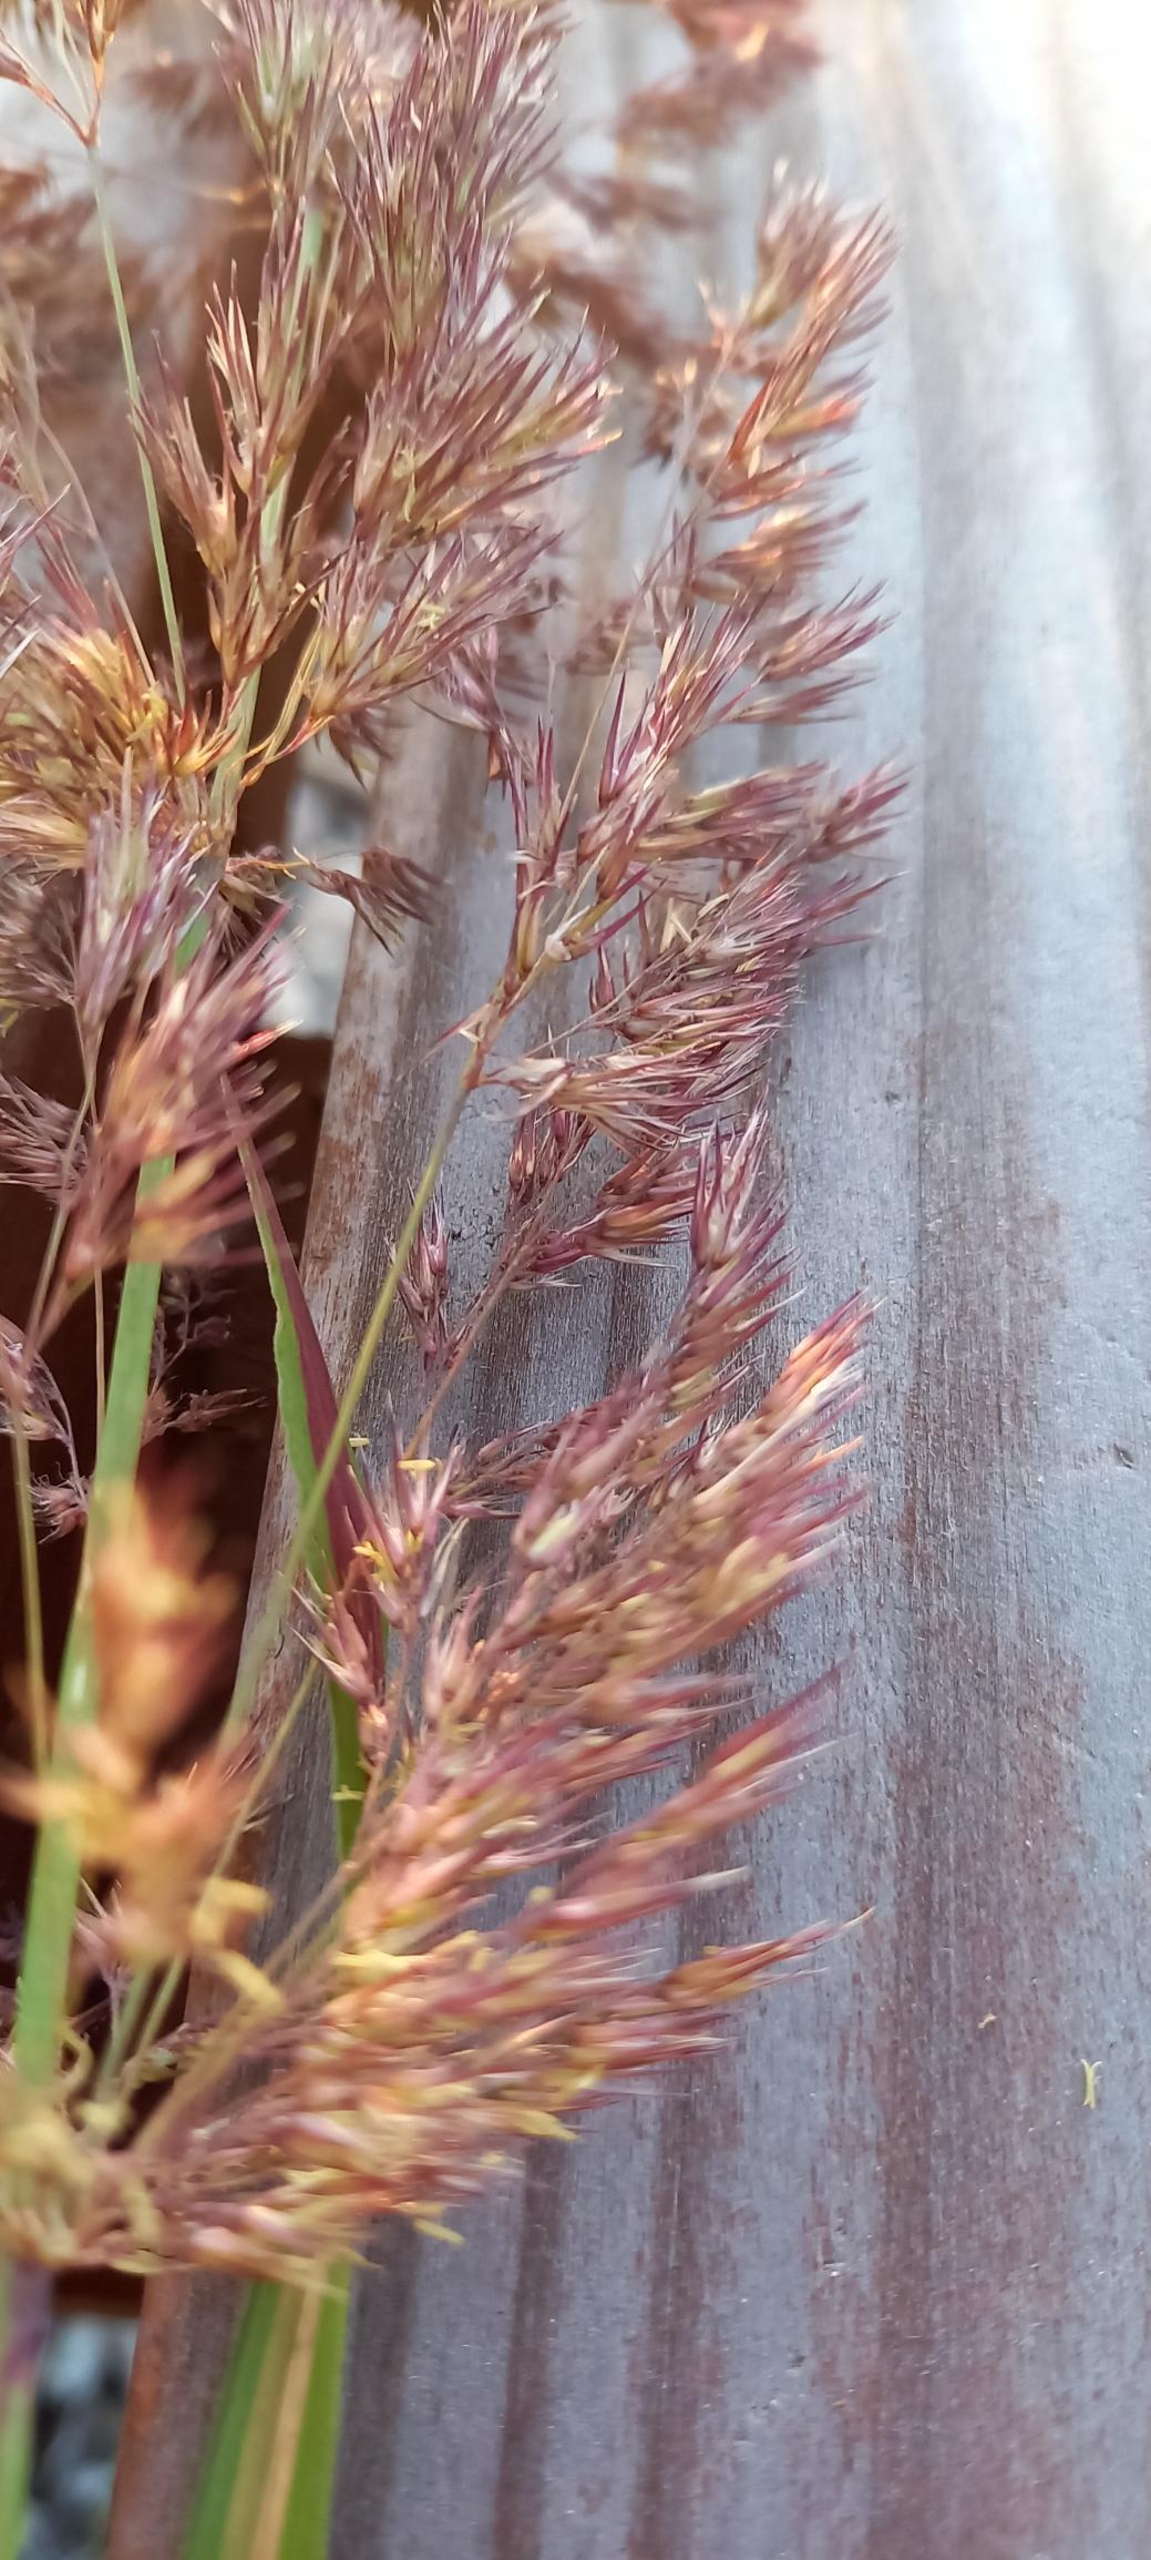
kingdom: Plantae
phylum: Tracheophyta
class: Liliopsida
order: Poales
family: Poaceae
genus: Calamagrostis
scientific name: Calamagrostis epigejos
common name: Bjerg-rørhvene
